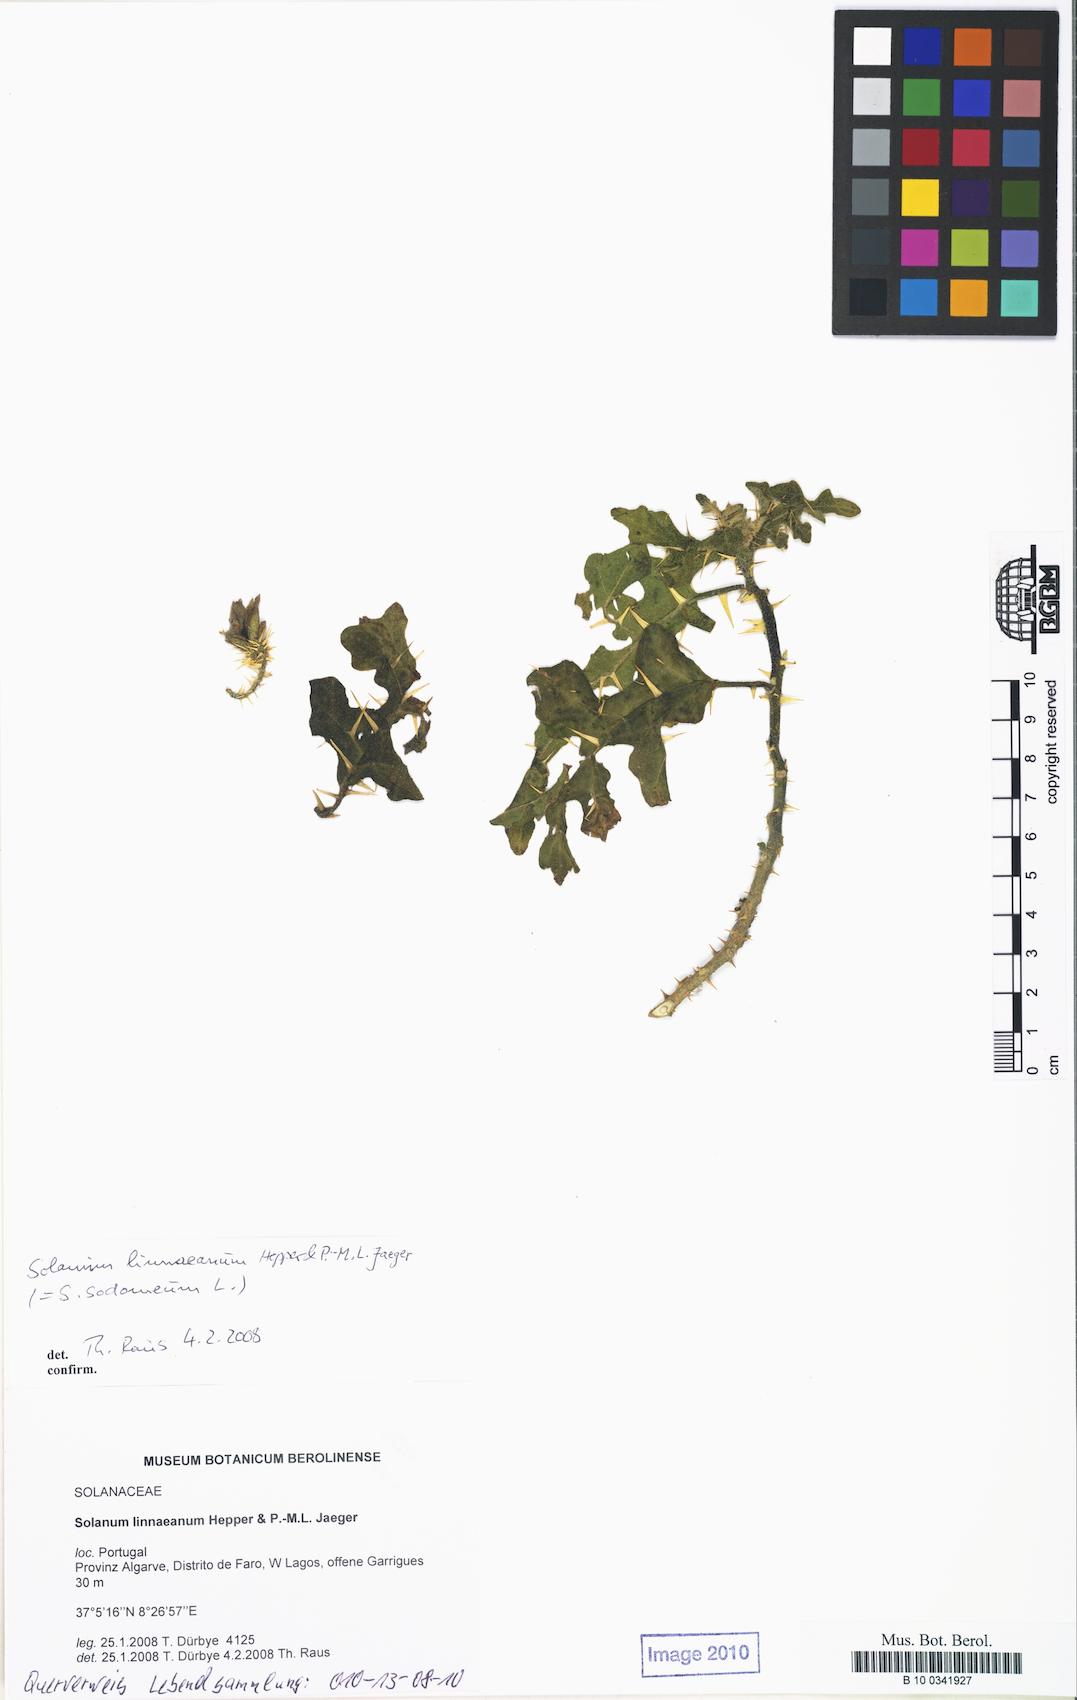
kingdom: Plantae
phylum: Tracheophyta
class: Magnoliopsida
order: Solanales
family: Solanaceae
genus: Solanum
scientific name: Solanum linnaeanum
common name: Nightshade
